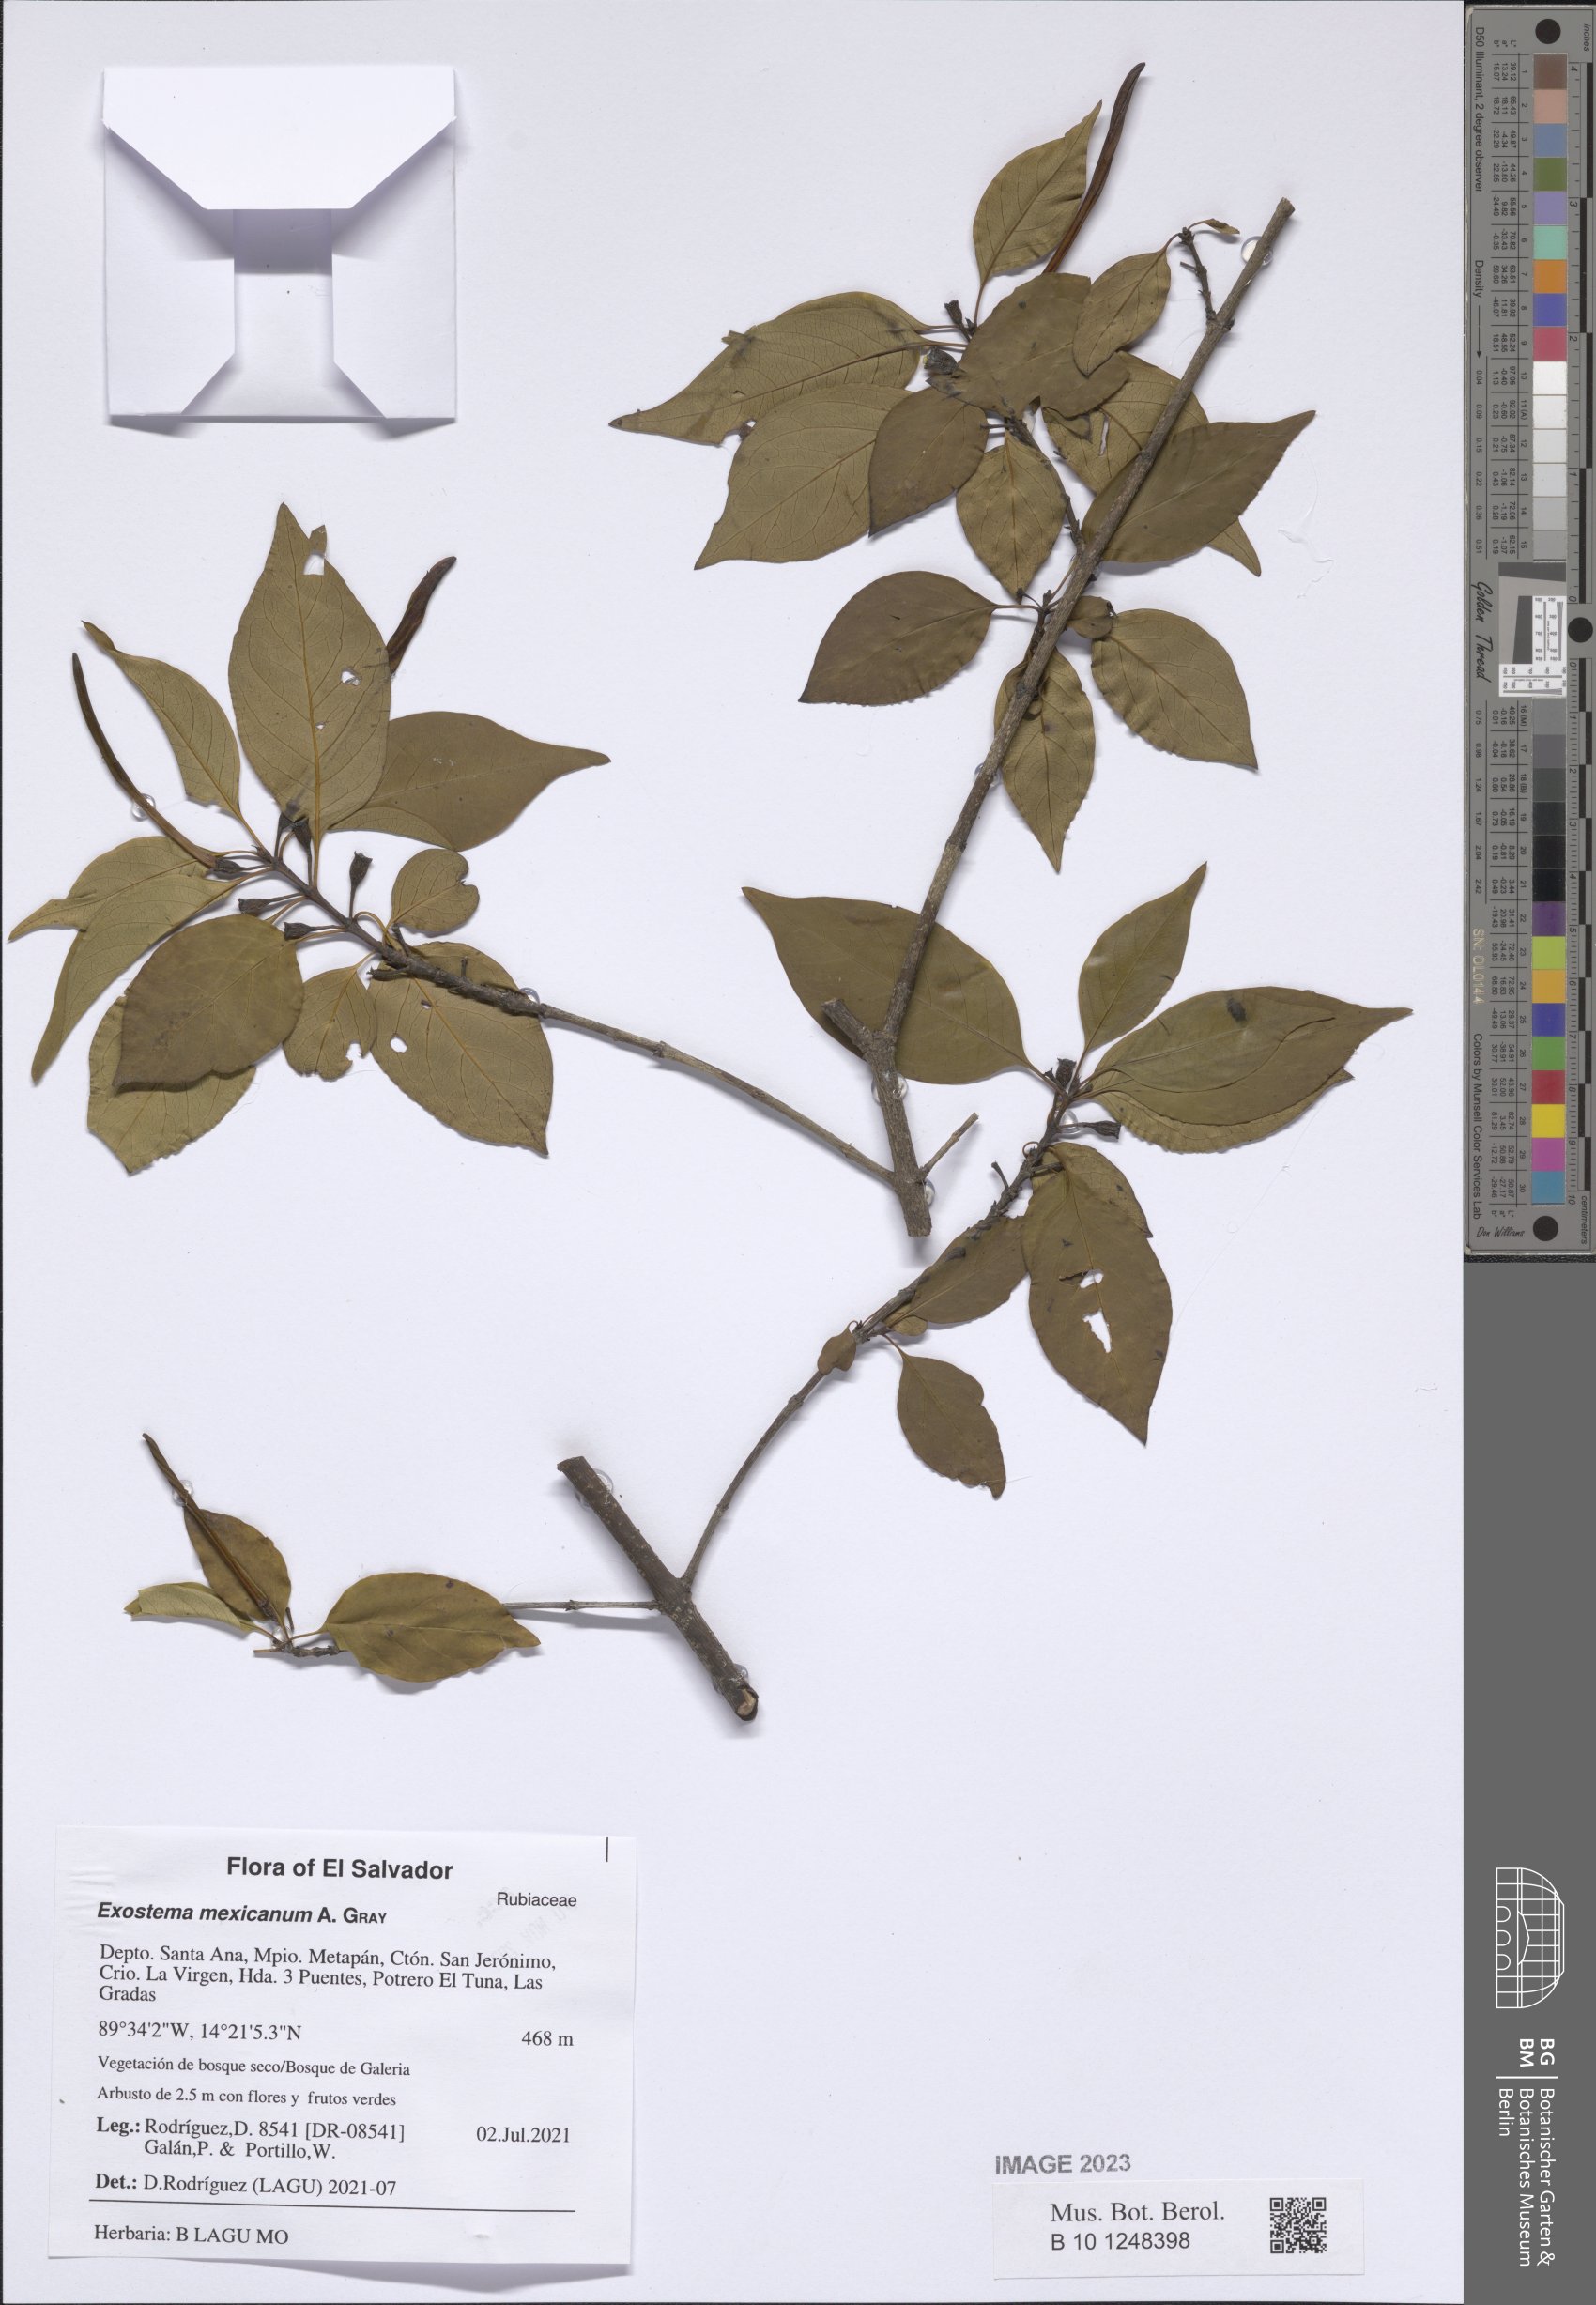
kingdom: Plantae
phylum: Tracheophyta
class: Magnoliopsida
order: Gentianales
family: Rubiaceae
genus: Solenandra
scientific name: Solenandra mexicana
